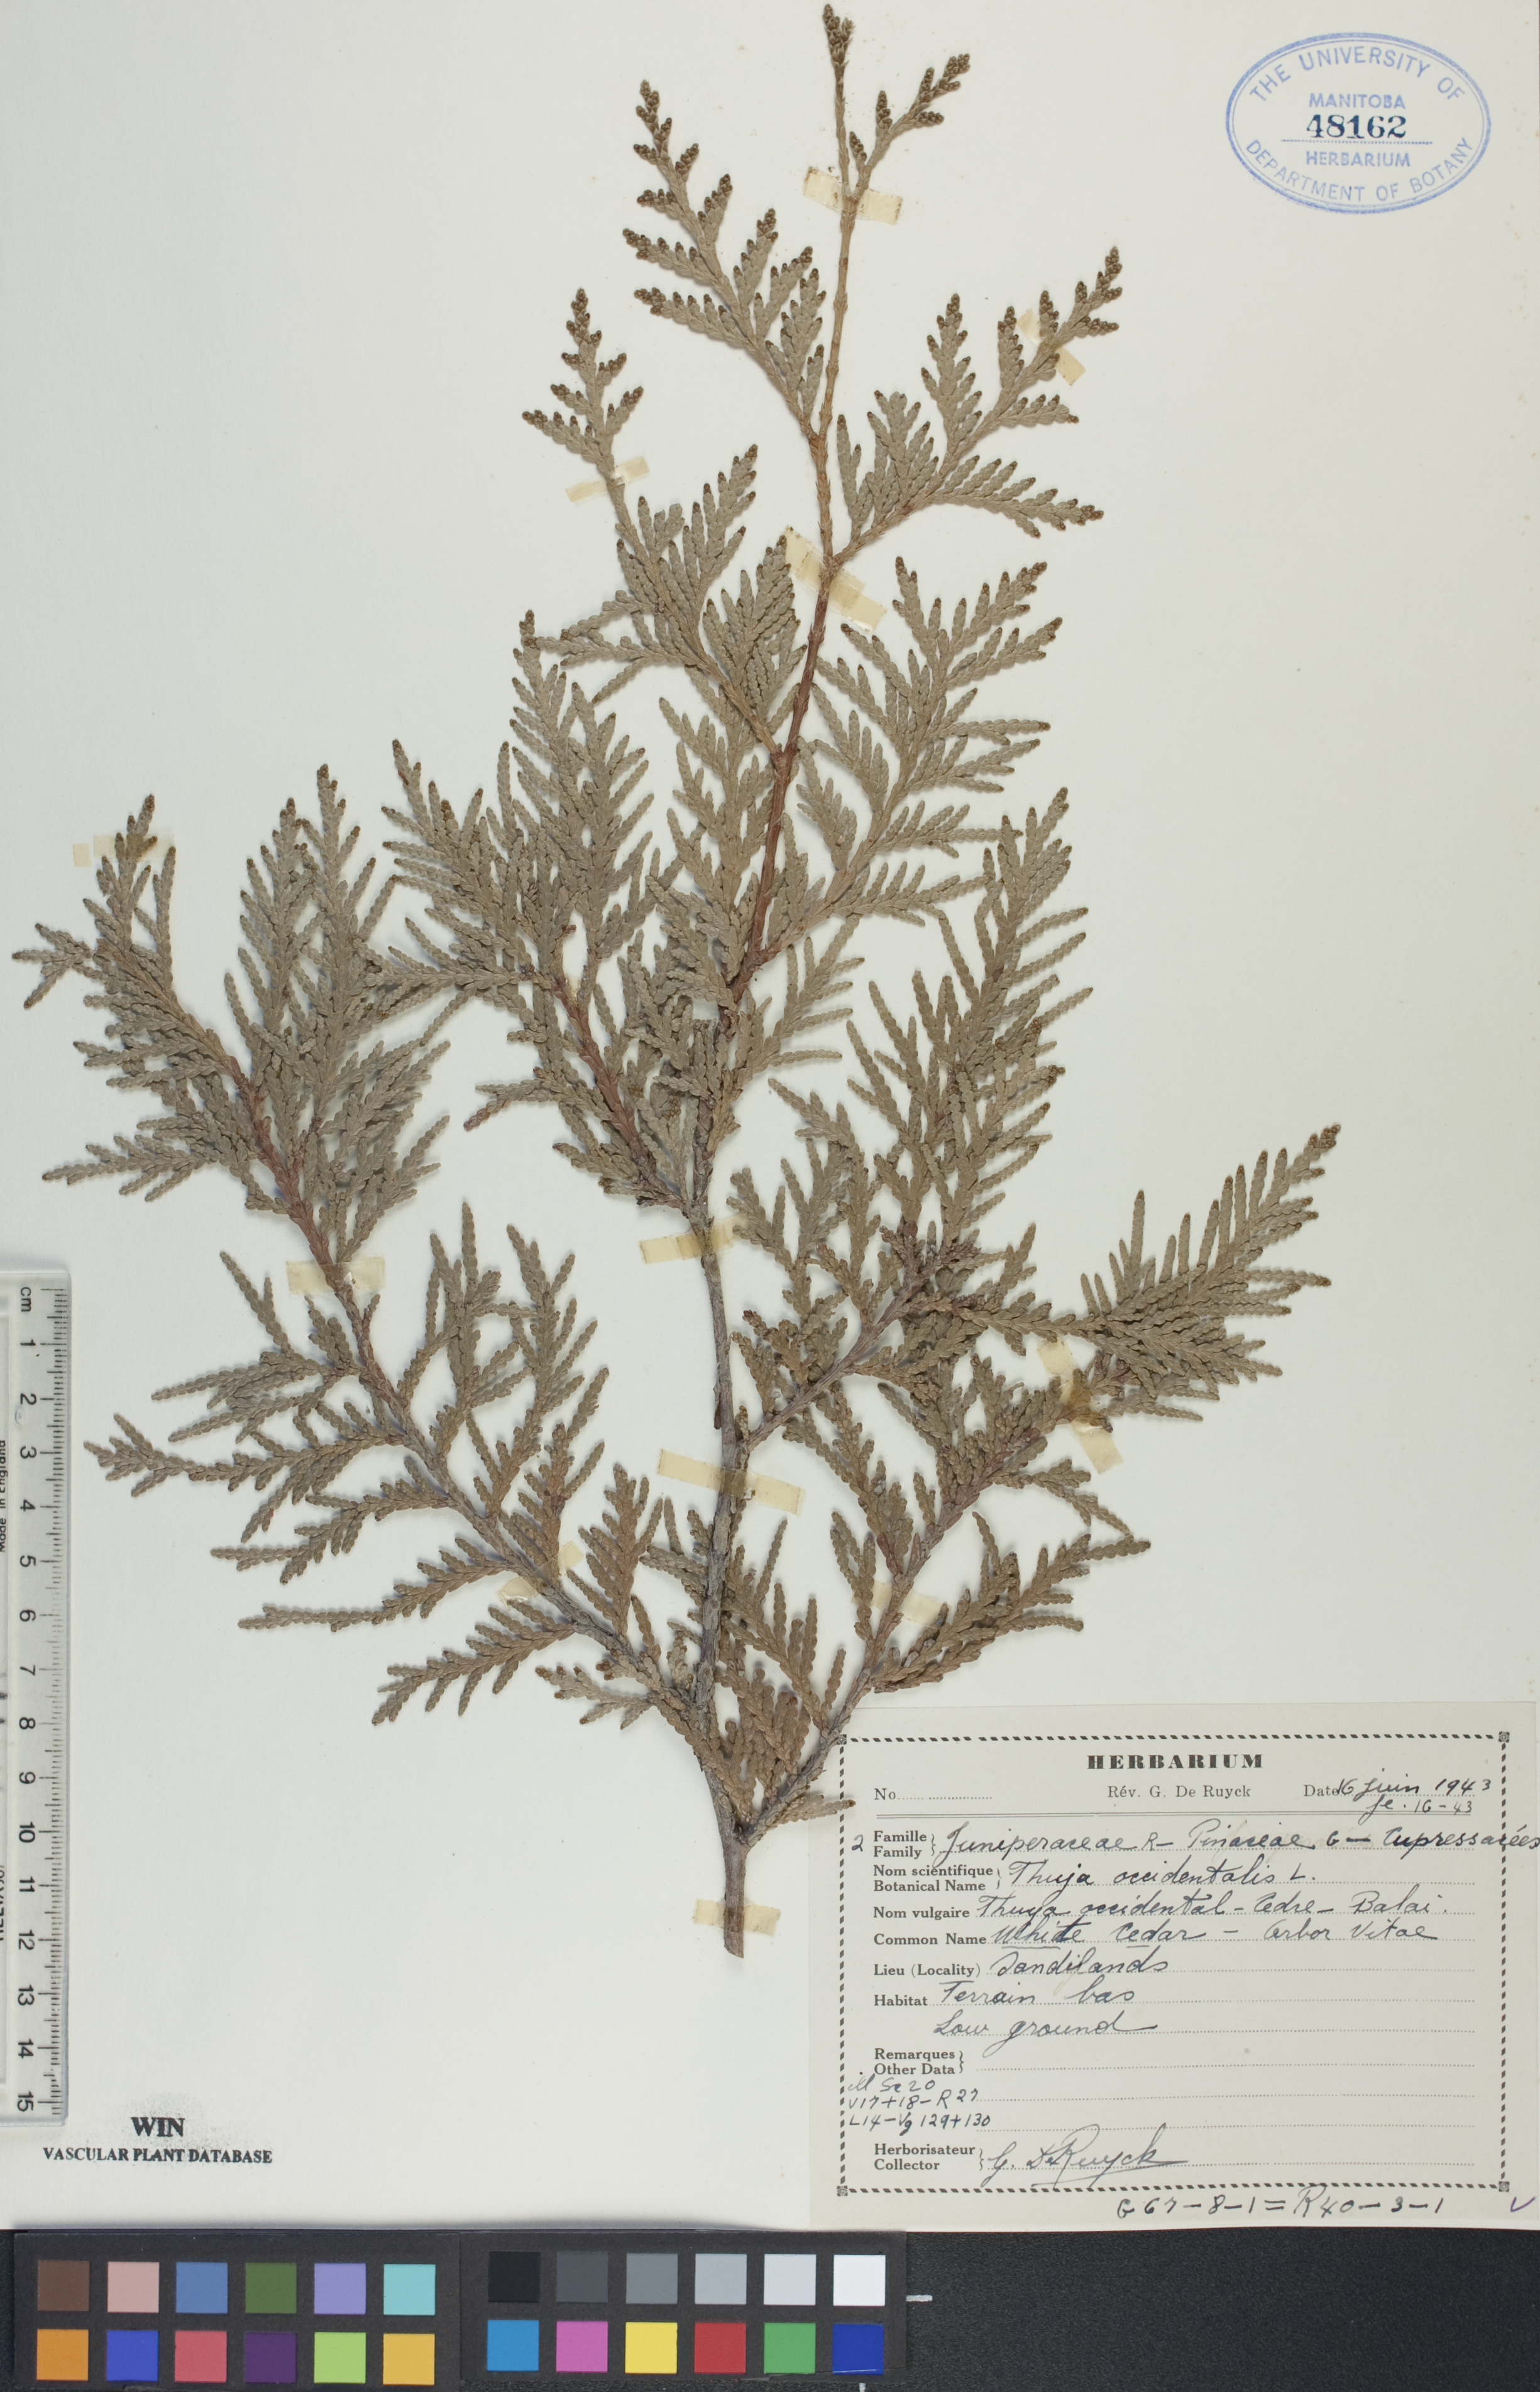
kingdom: Plantae
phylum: Tracheophyta
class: Pinopsida
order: Pinales
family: Cupressaceae
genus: Thuja
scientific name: Thuja occidentalis
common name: Northern white-cedar
